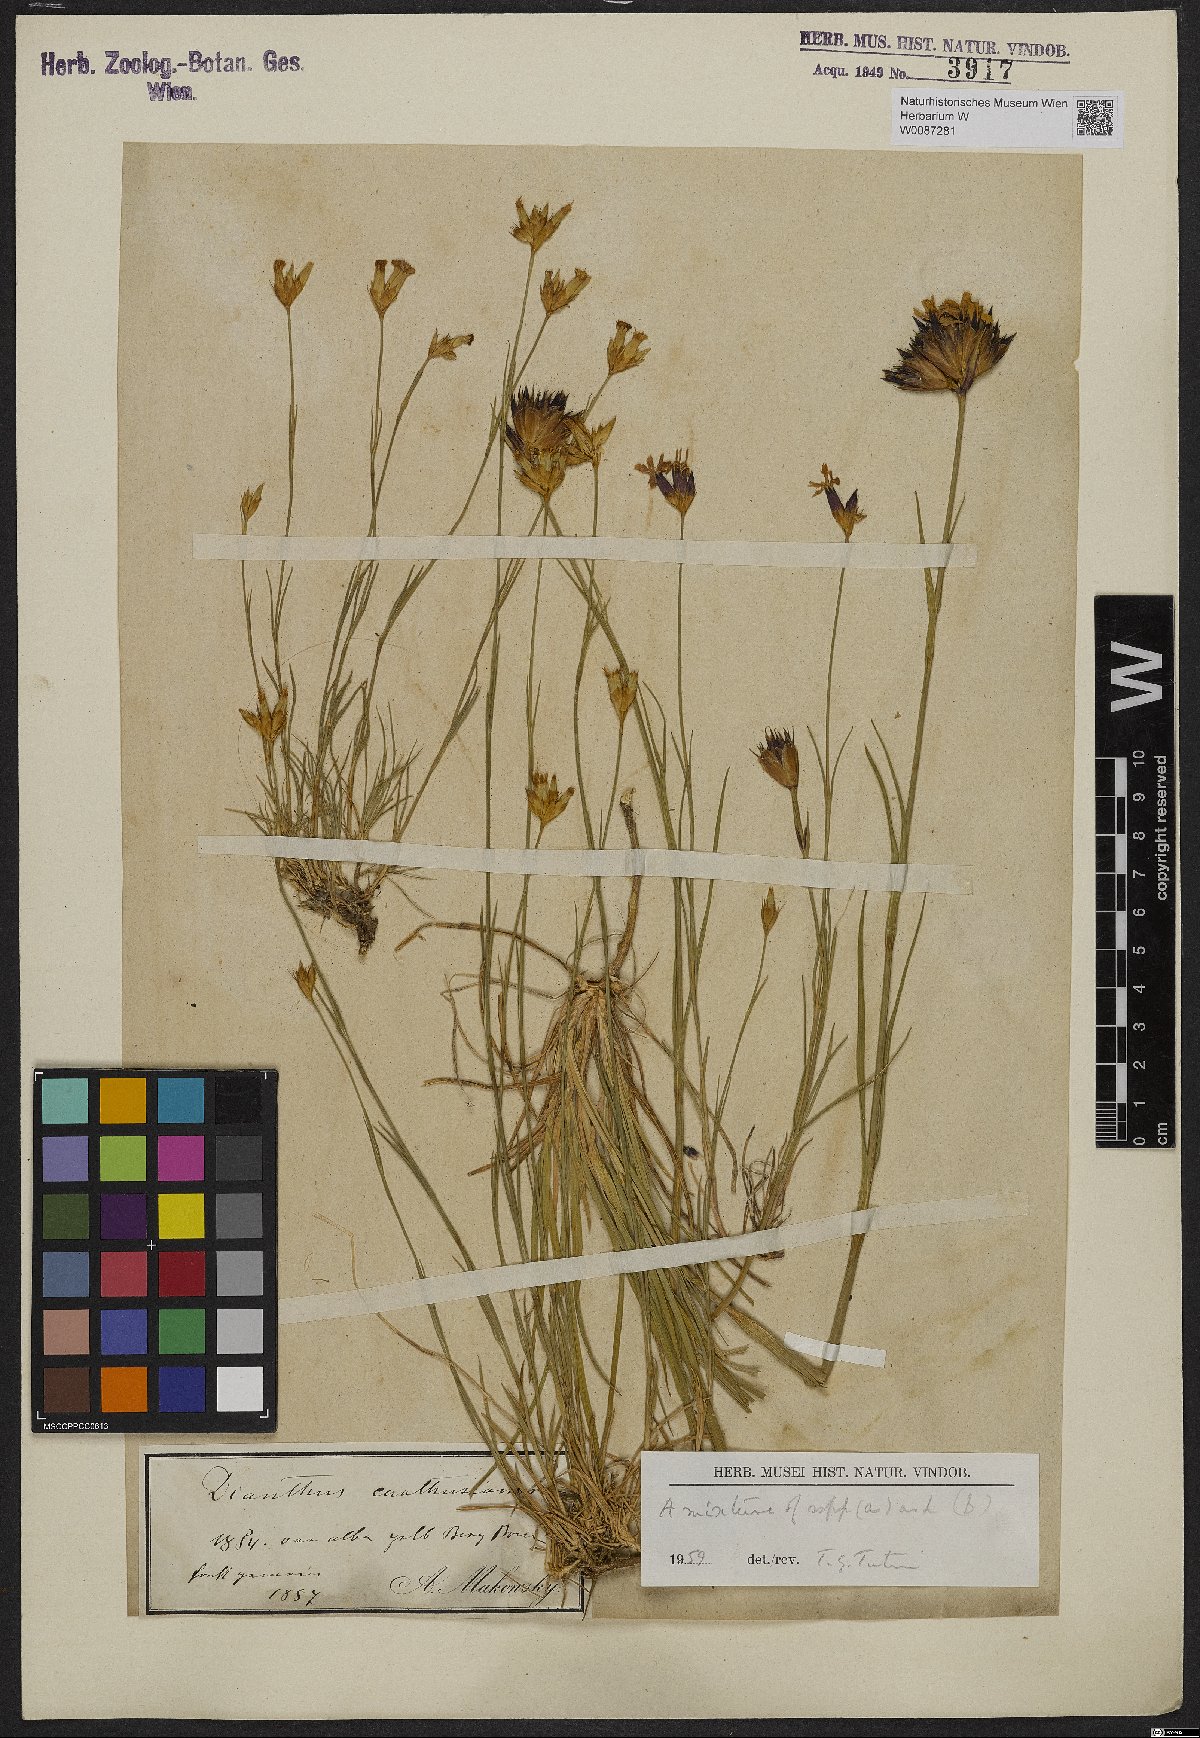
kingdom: Plantae
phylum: Tracheophyta
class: Magnoliopsida
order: Caryophyllales
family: Caryophyllaceae
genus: Dianthus
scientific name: Dianthus
